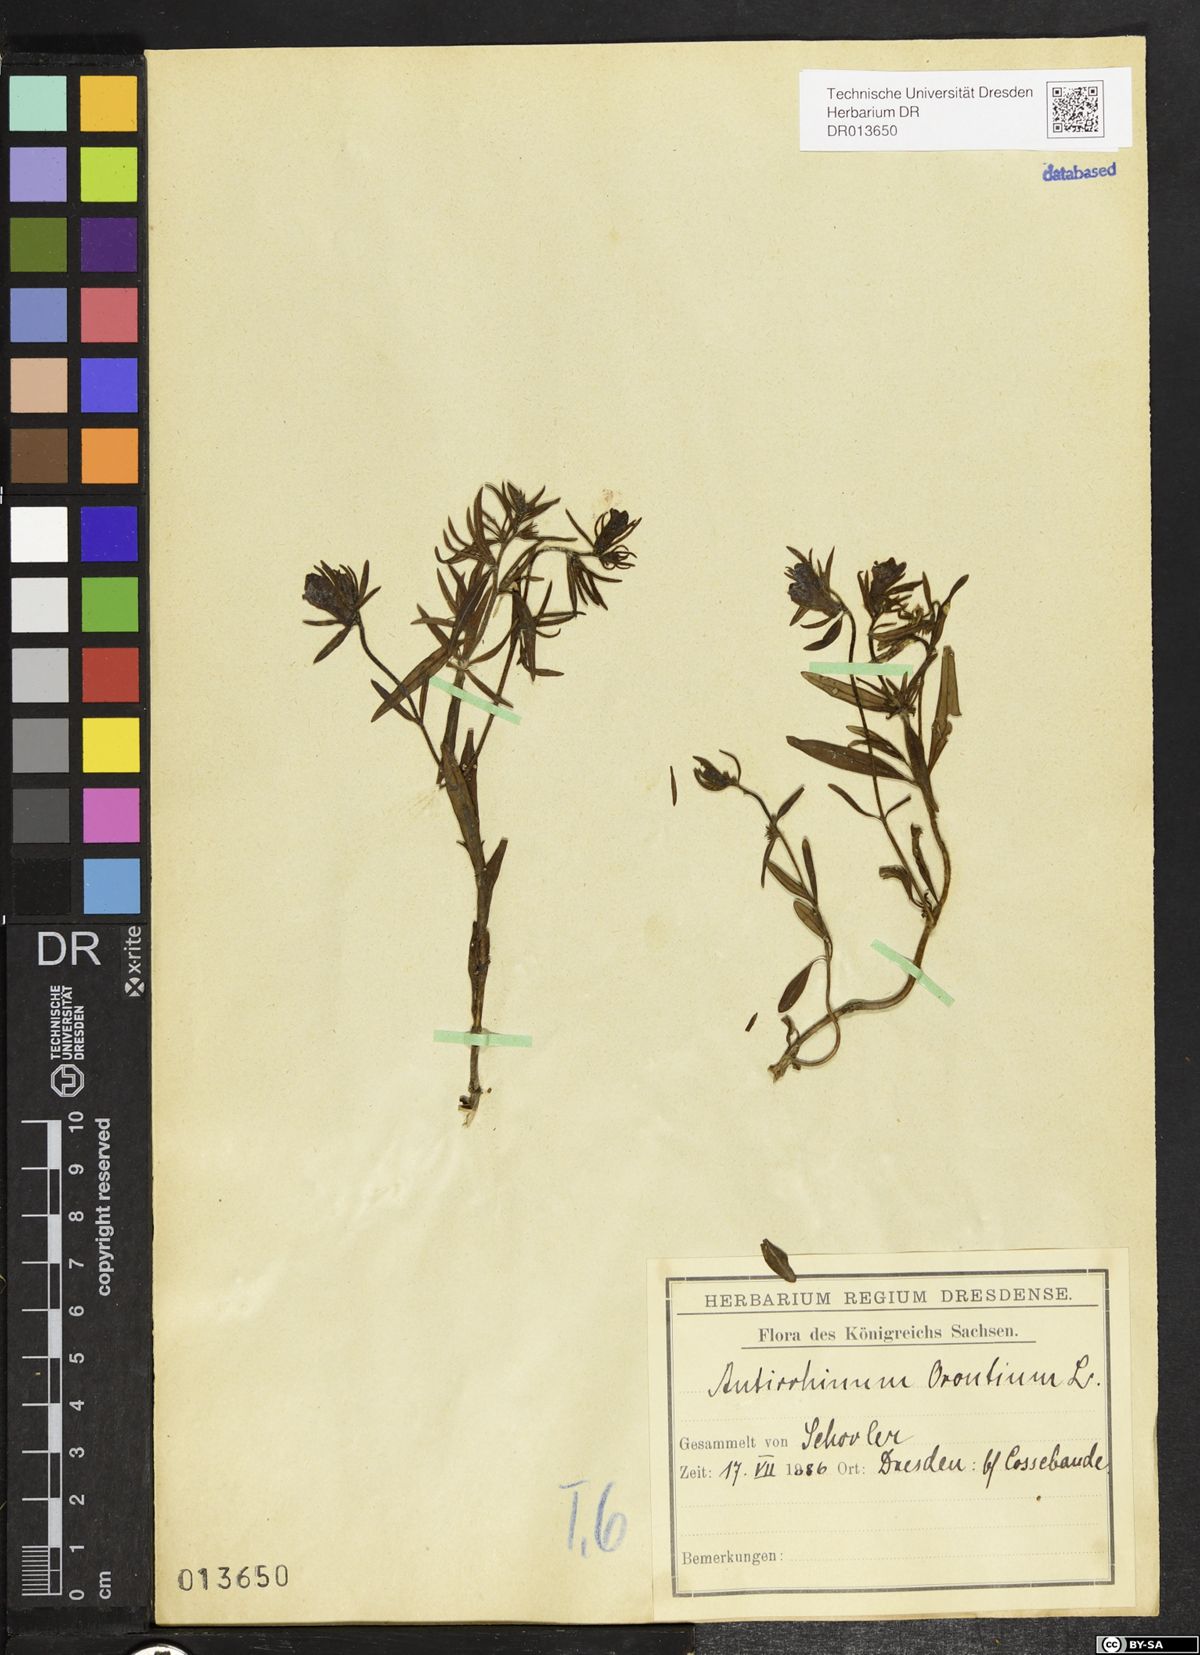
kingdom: Plantae
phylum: Tracheophyta
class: Magnoliopsida
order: Lamiales
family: Plantaginaceae
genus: Misopates
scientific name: Misopates orontium
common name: Weasel's-snout
